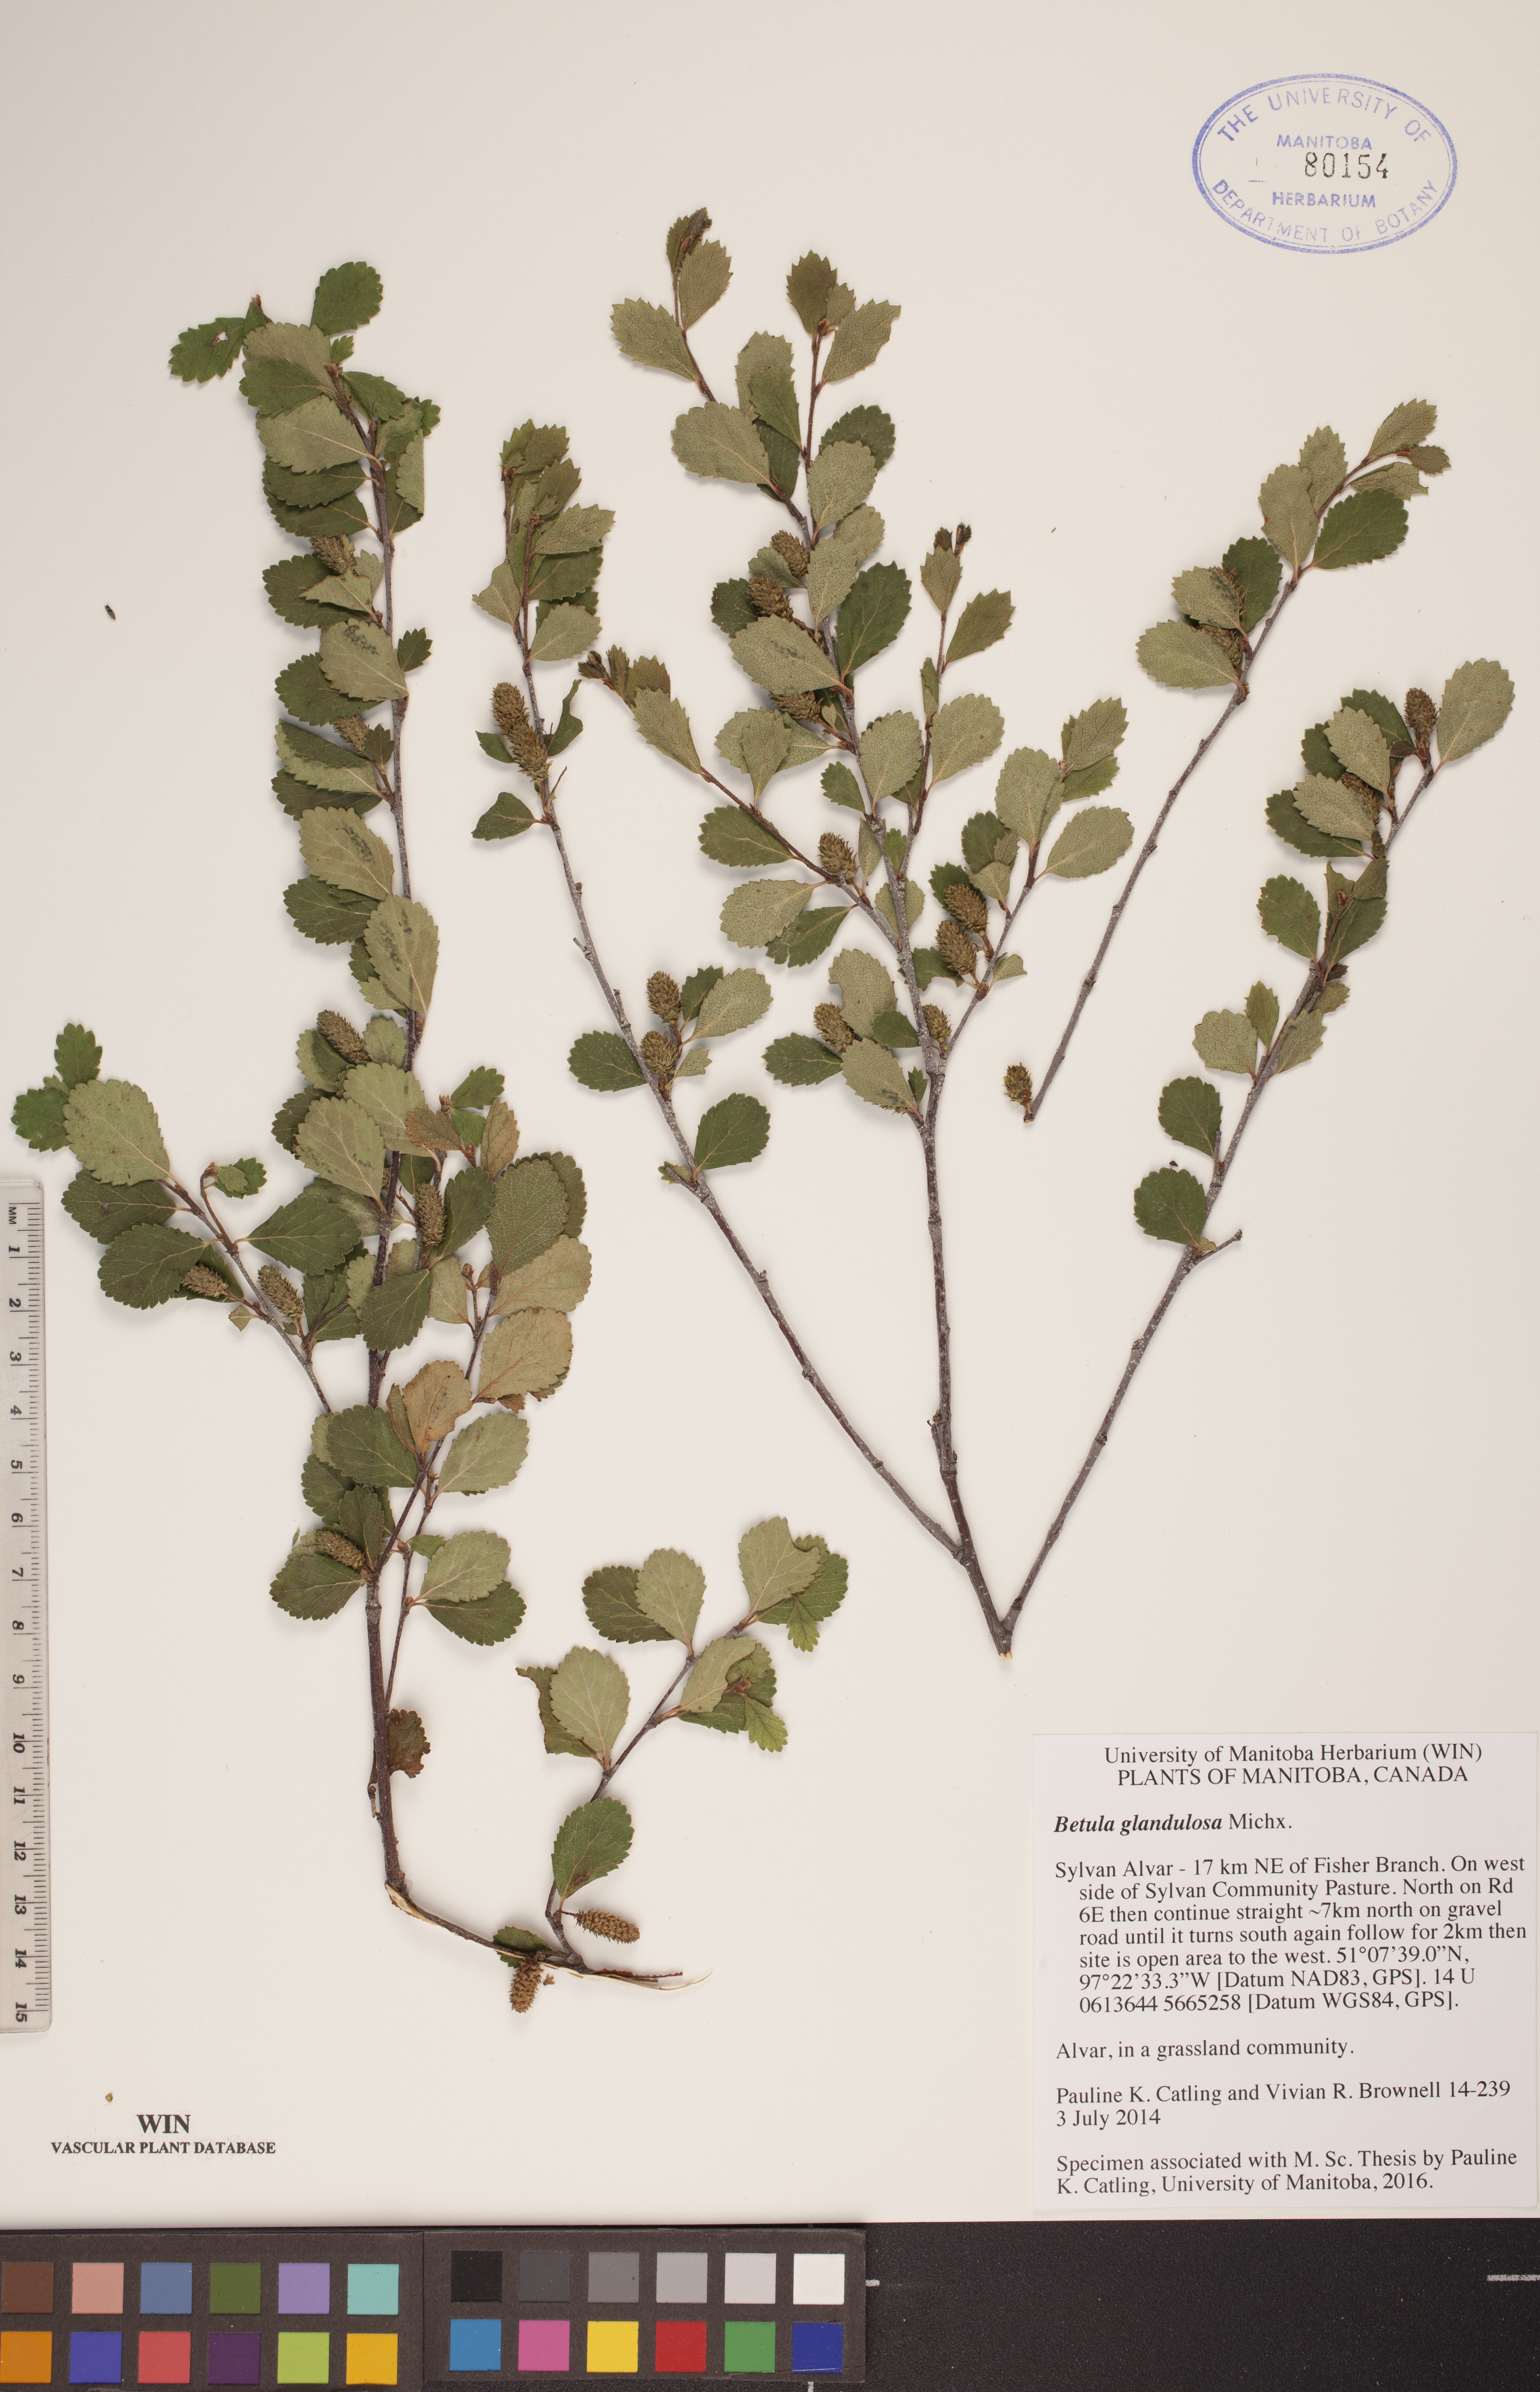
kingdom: Plantae
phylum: Tracheophyta
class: Magnoliopsida
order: Fagales
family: Betulaceae
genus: Betula
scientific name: Betula glandulosa
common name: Dwarf birch
